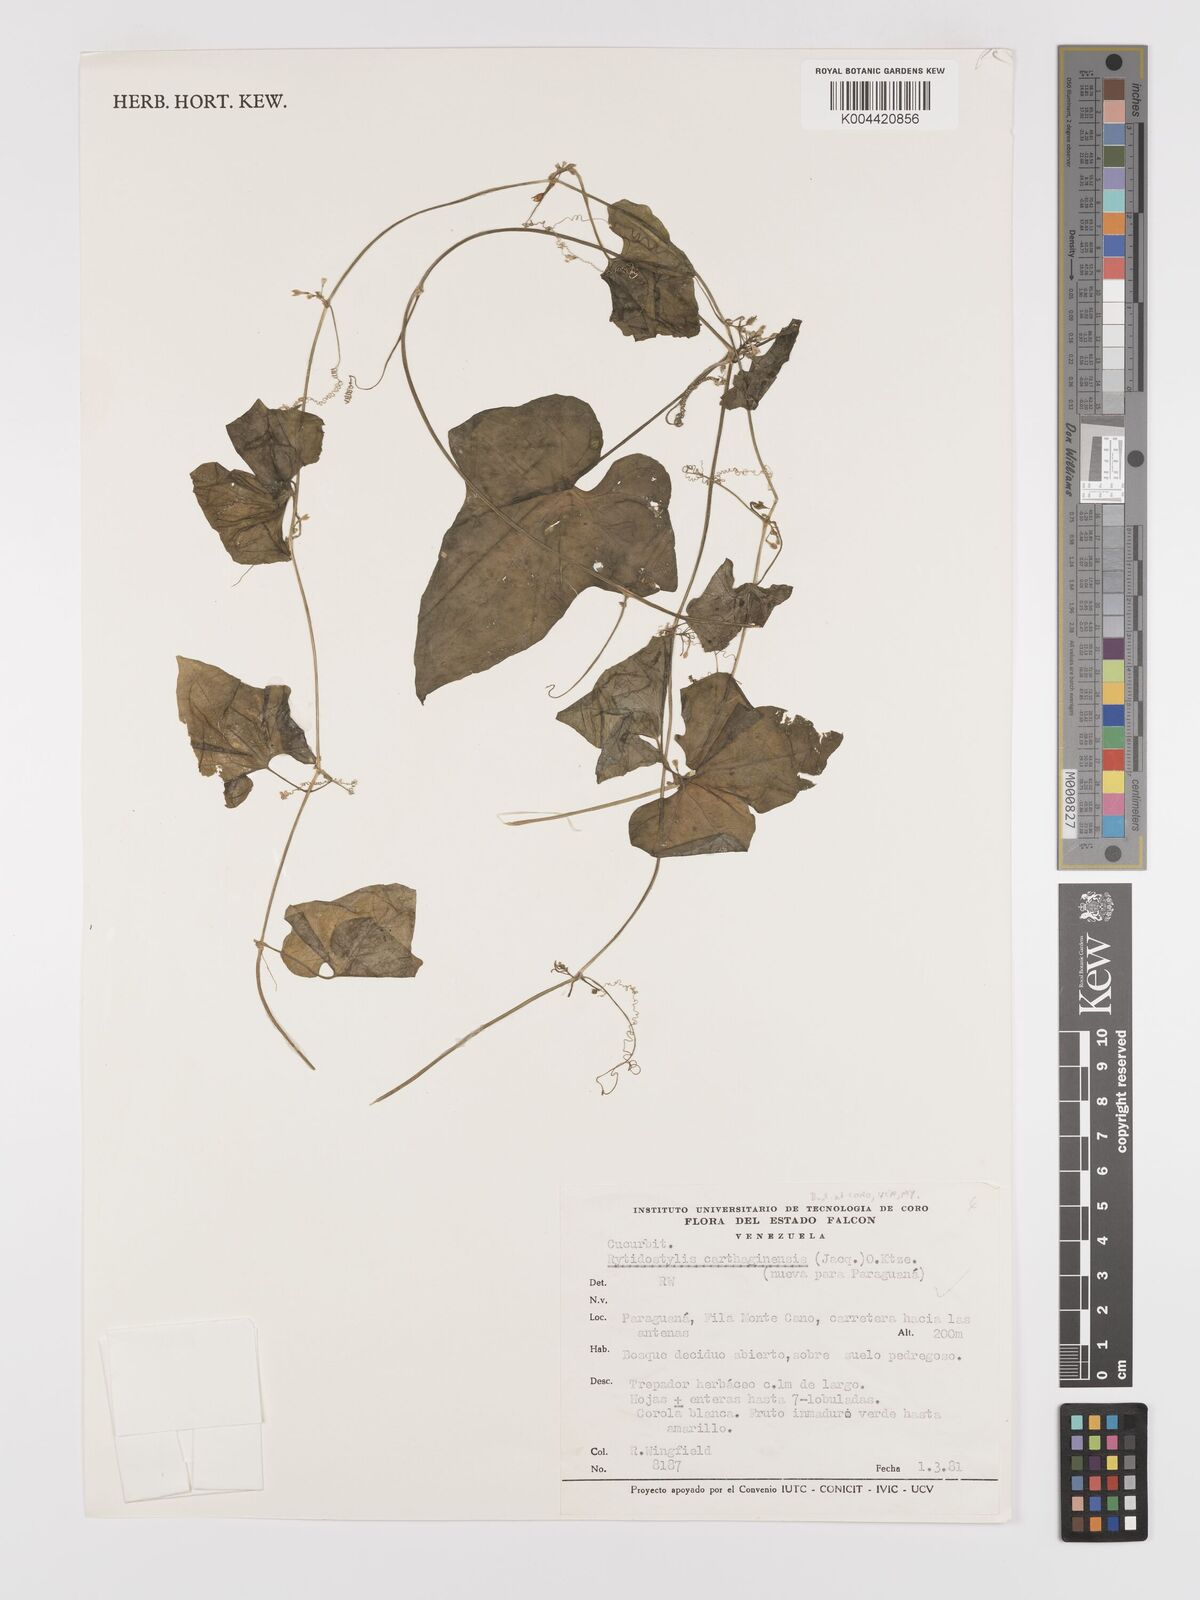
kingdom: Plantae
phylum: Tracheophyta
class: Magnoliopsida
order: Cucurbitales
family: Cucurbitaceae
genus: Cyclanthera
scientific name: Cyclanthera carthagenensis
